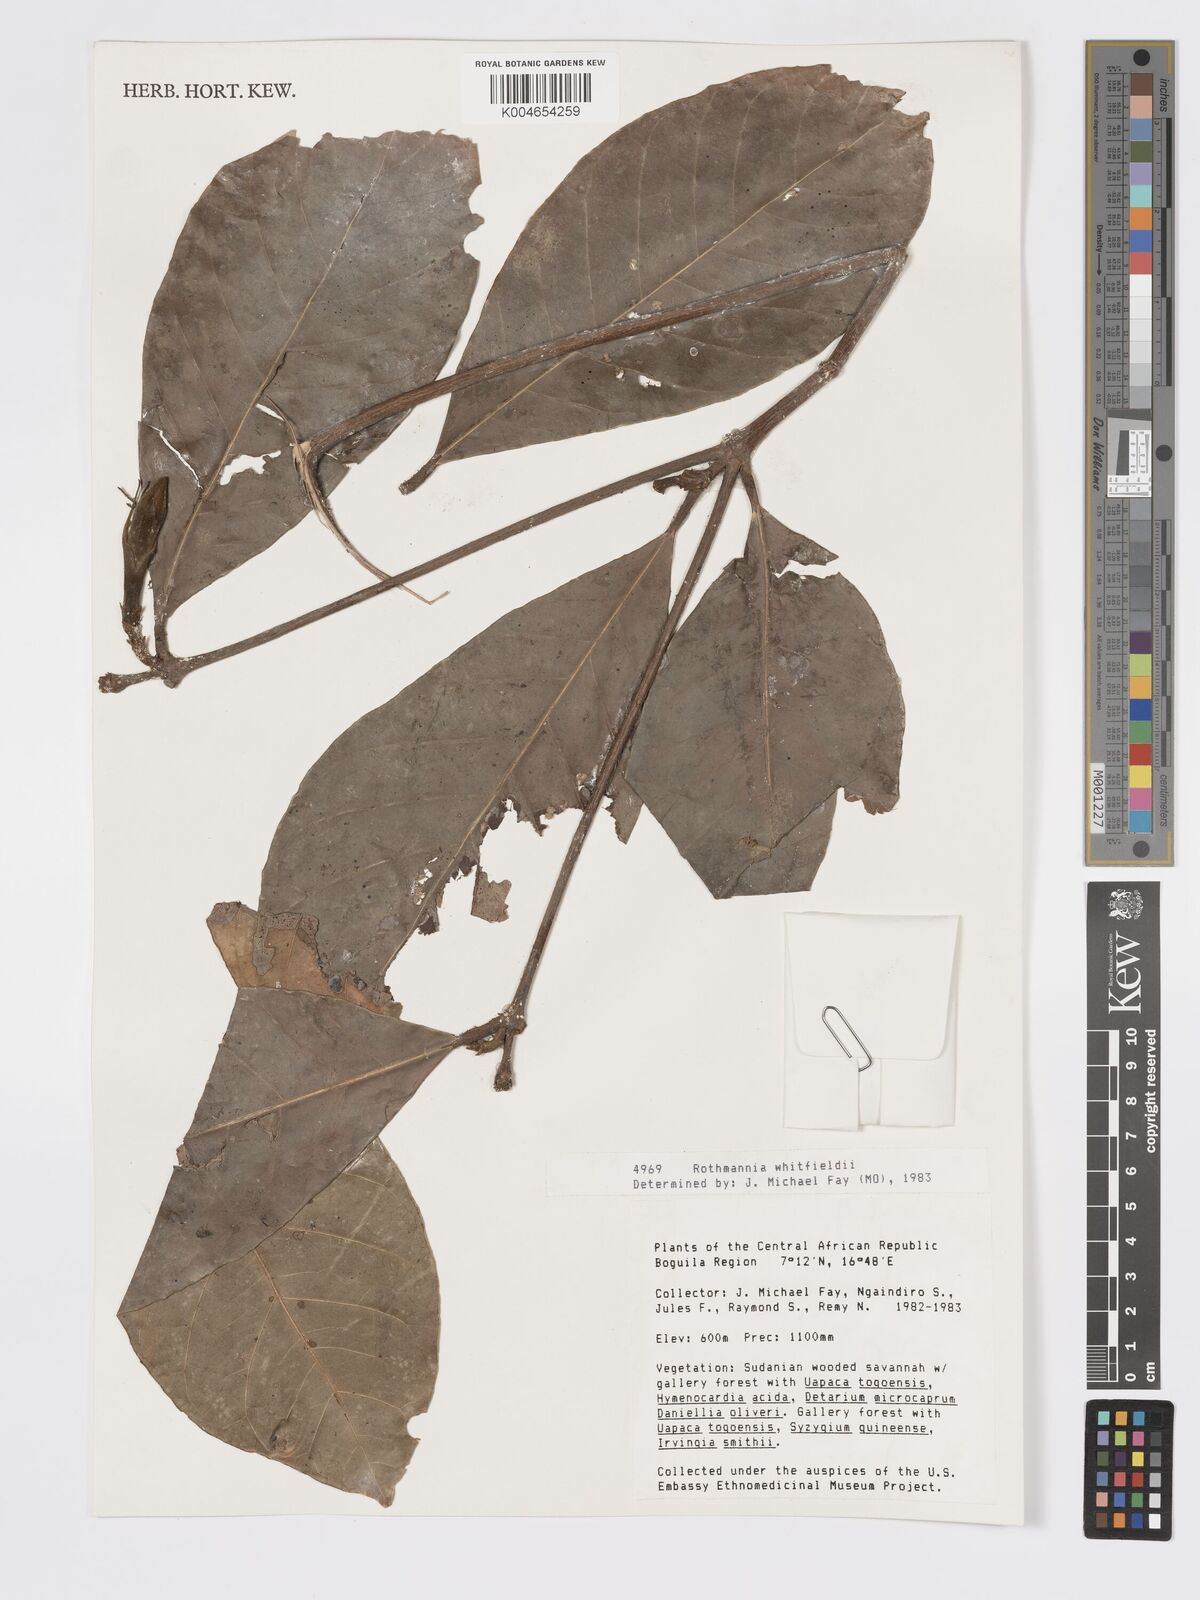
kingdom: Plantae
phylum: Tracheophyta
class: Magnoliopsida
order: Gentianales
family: Rubiaceae
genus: Rothmannia
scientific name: Rothmannia whitfieldii
